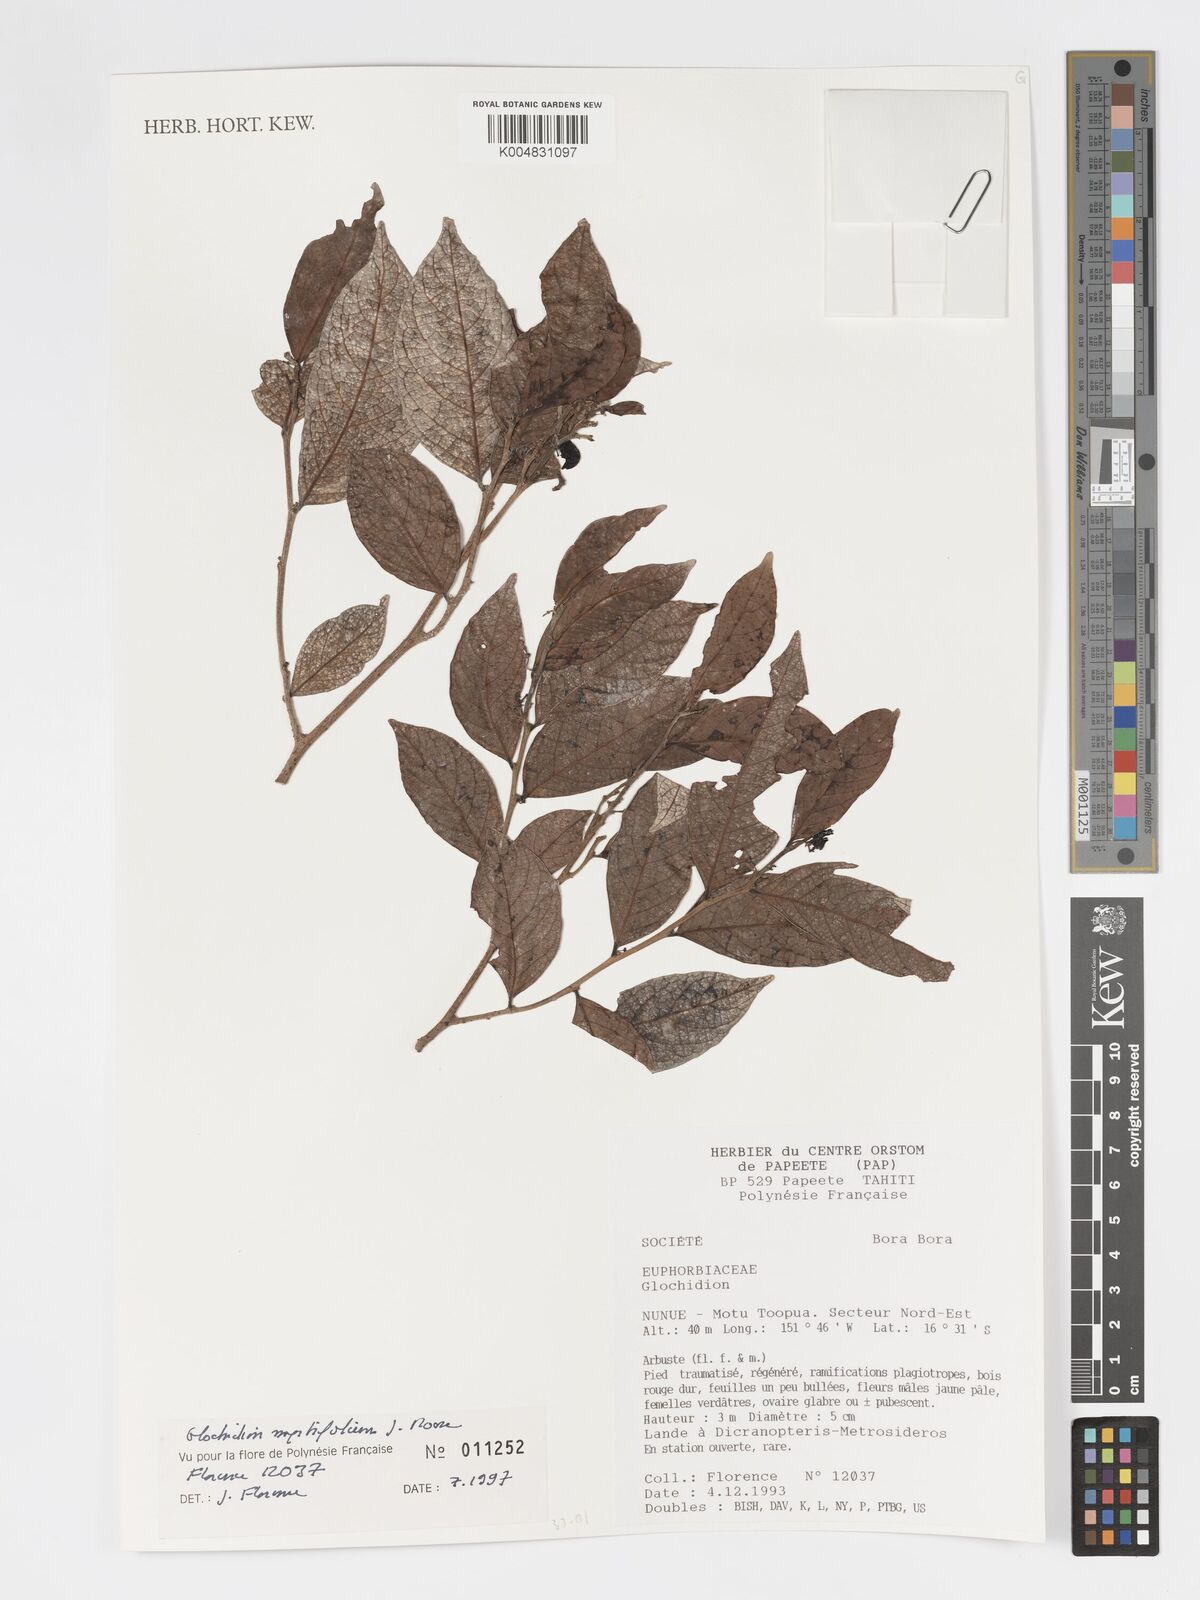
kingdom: Plantae
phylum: Tracheophyta
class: Magnoliopsida
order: Malpighiales
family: Phyllanthaceae
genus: Glochidion
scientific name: Glochidion myrtifolium
